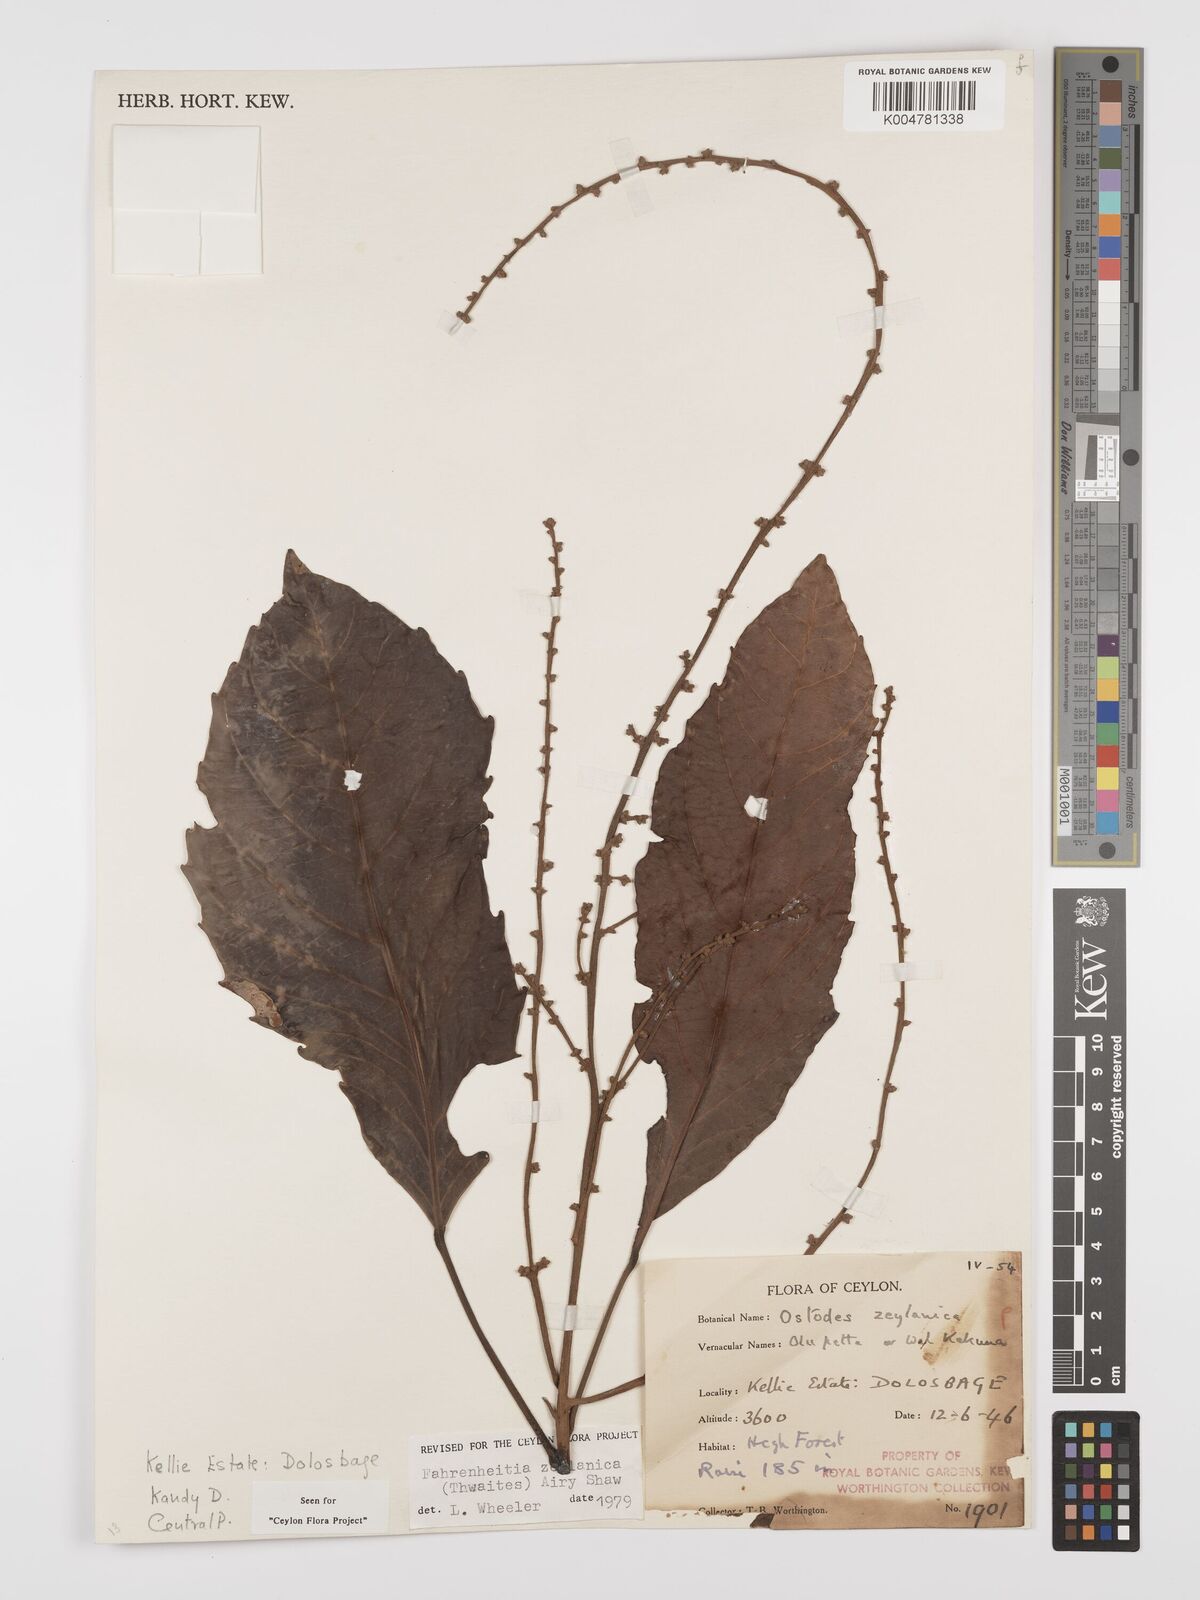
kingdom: Plantae
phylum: Tracheophyta
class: Magnoliopsida
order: Malpighiales
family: Euphorbiaceae
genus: Paracroton
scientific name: Paracroton zeylanicus
